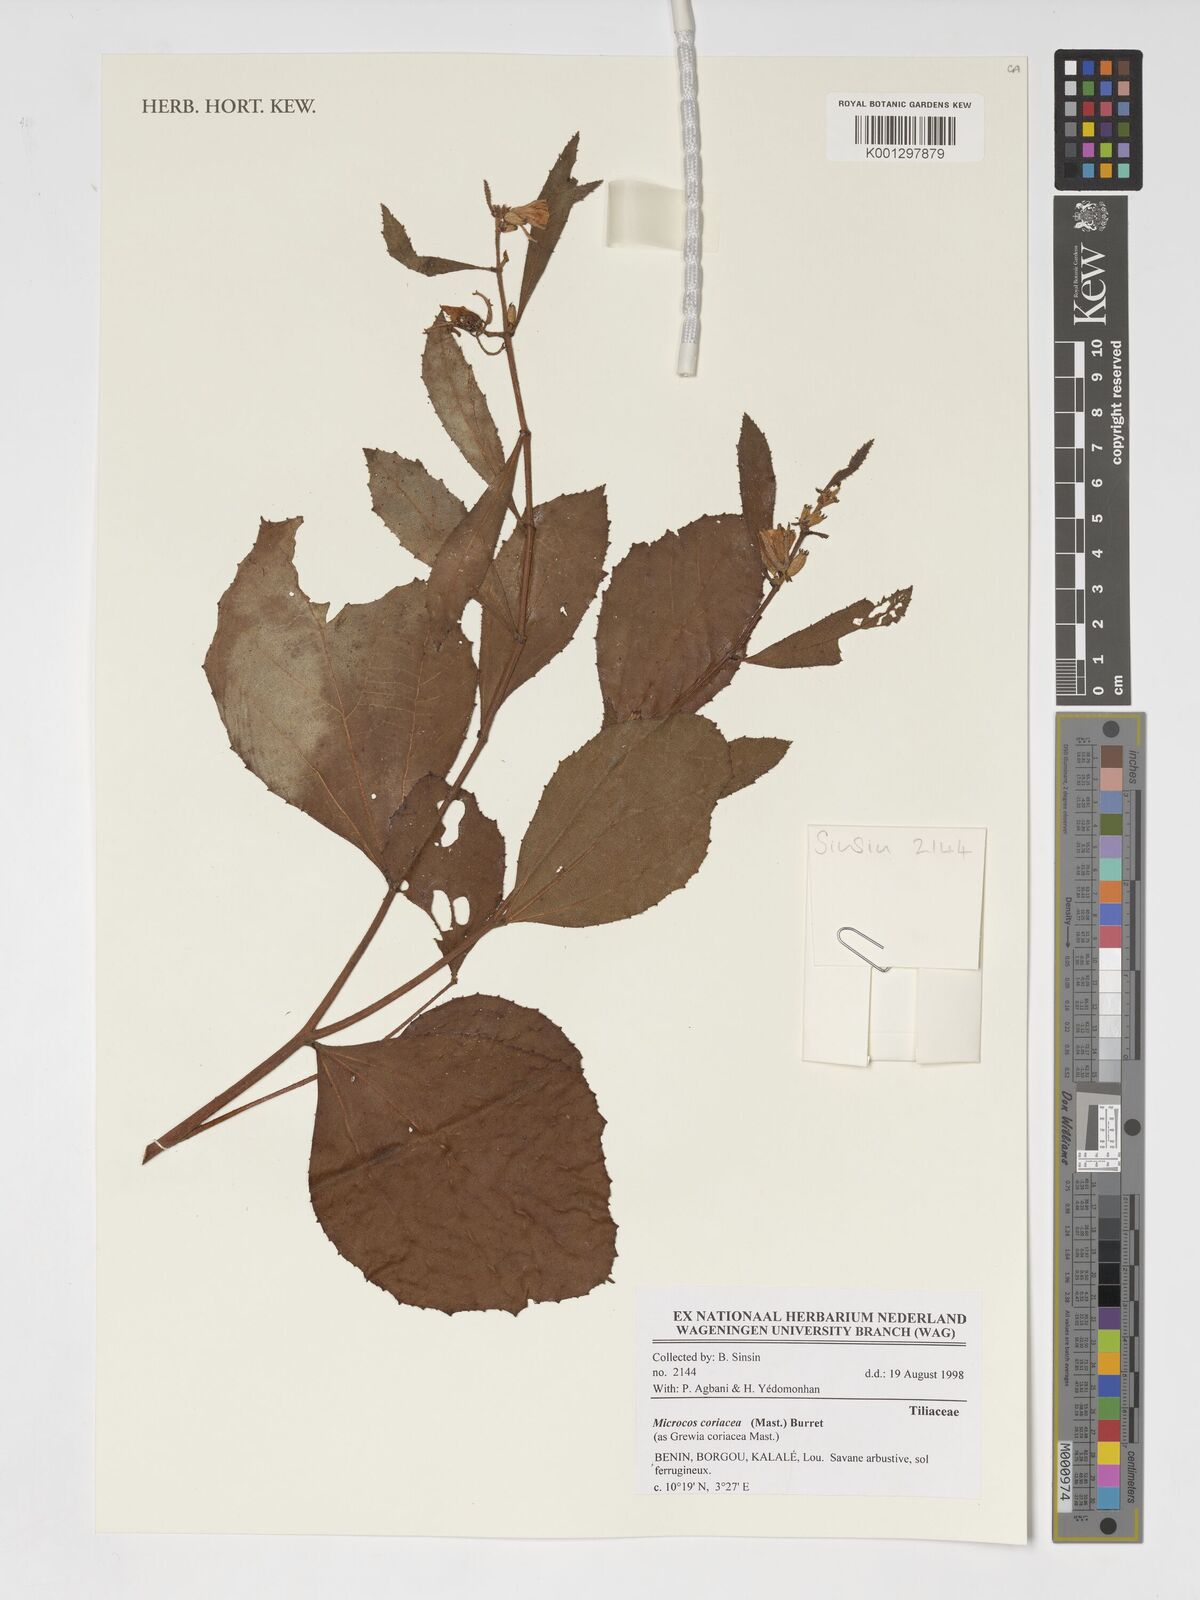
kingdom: Plantae
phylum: Tracheophyta
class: Magnoliopsida
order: Malvales
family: Malvaceae
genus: Microcos
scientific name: Microcos coriacea
